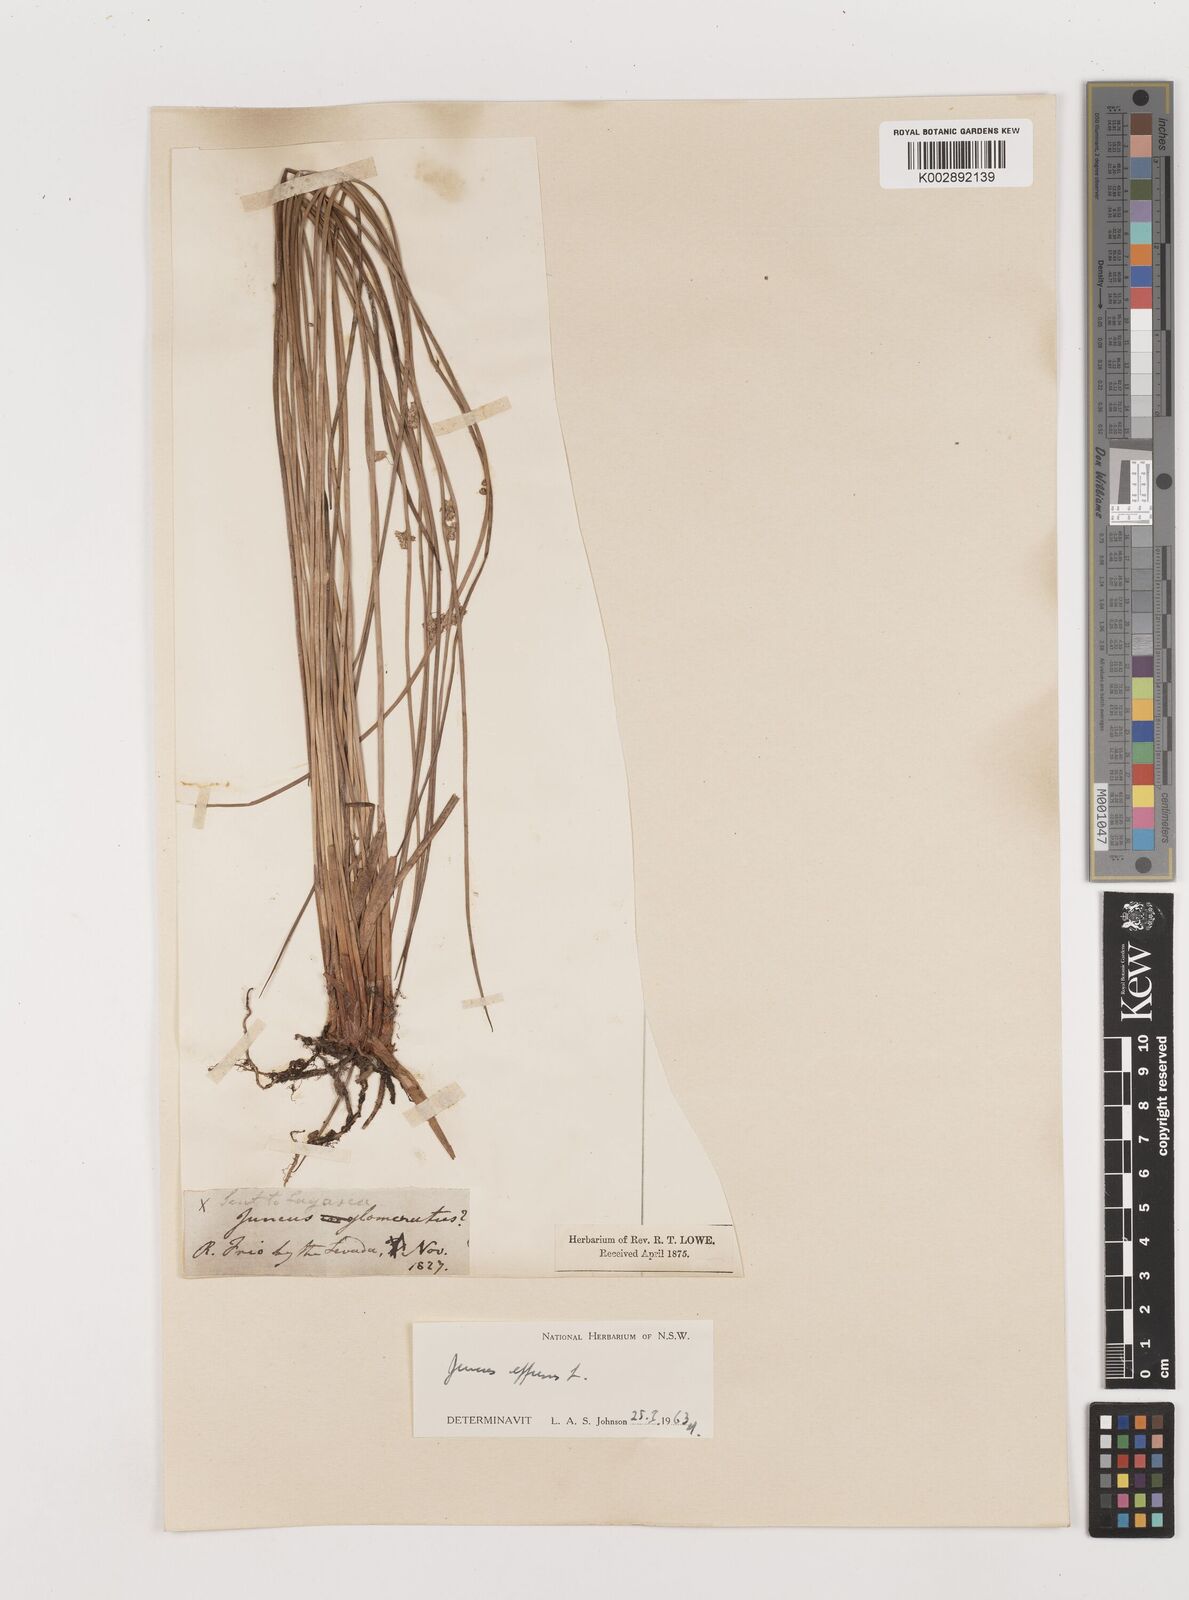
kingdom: Plantae
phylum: Tracheophyta
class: Liliopsida
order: Poales
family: Juncaceae
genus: Juncus
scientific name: Juncus effusus
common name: Soft rush
